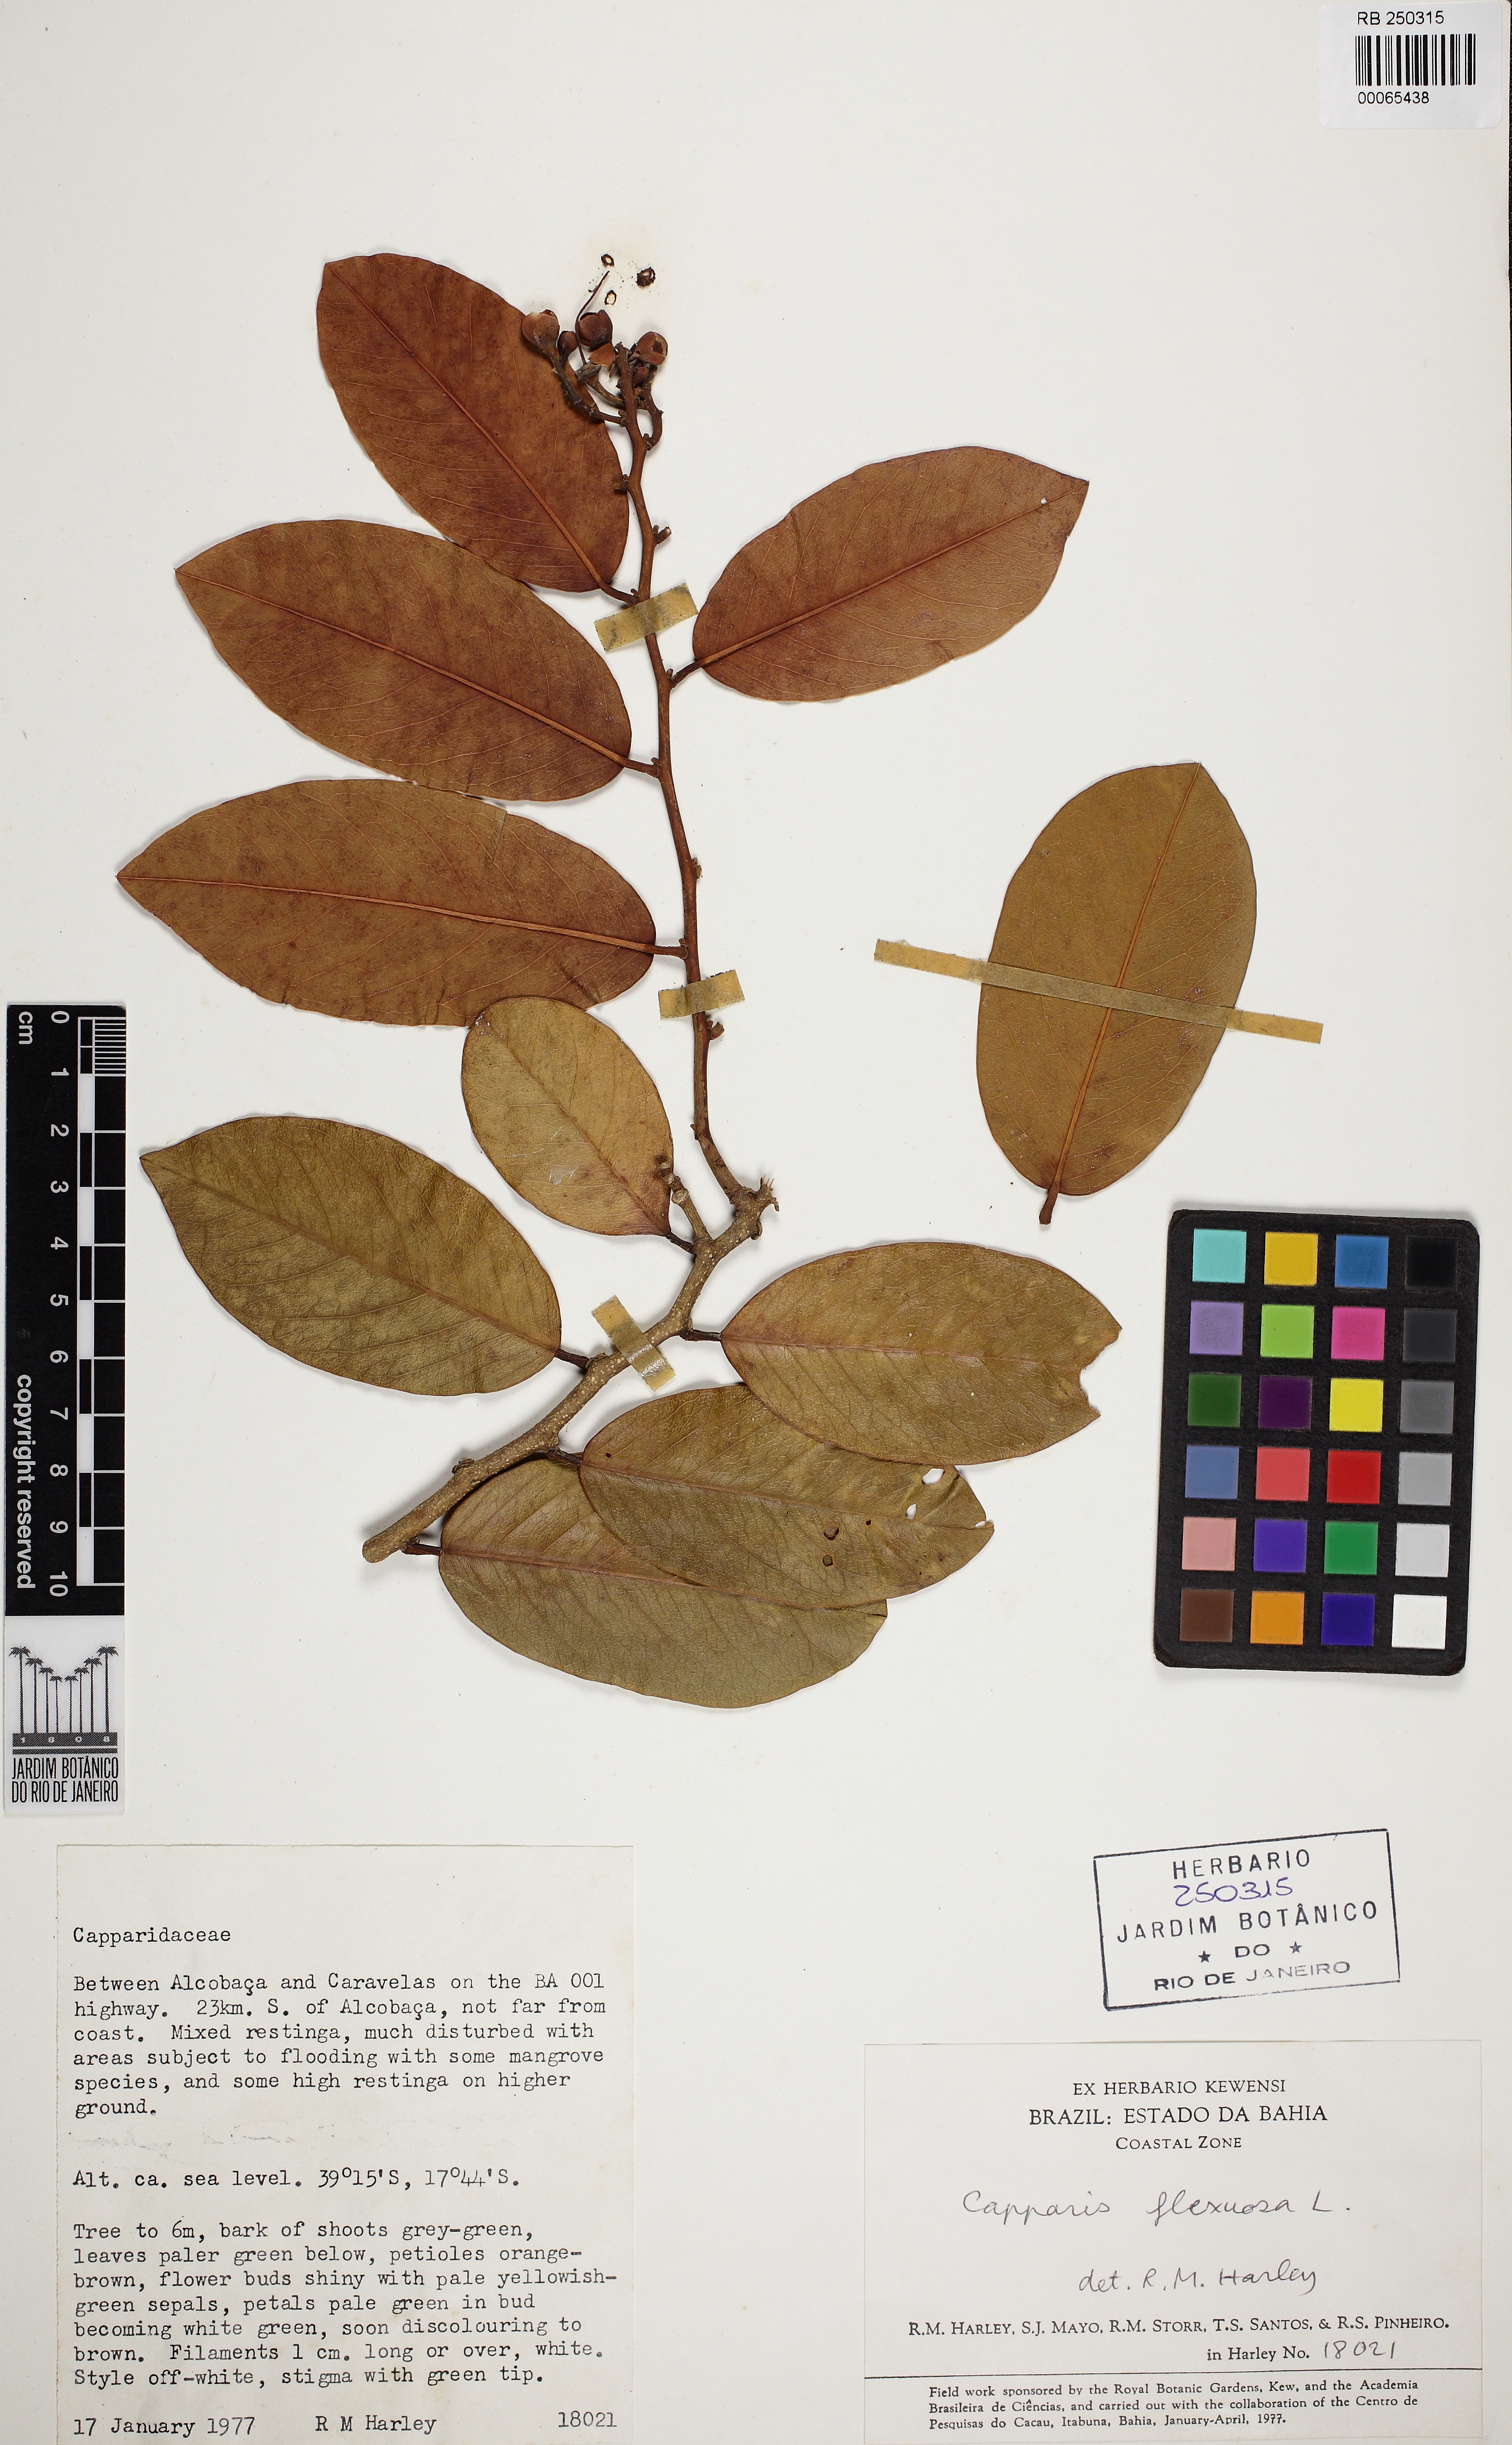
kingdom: Plantae
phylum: Tracheophyta
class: Magnoliopsida
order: Brassicales
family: Capparaceae
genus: Cynophalla
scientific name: Cynophalla flexuosa
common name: Capertree
